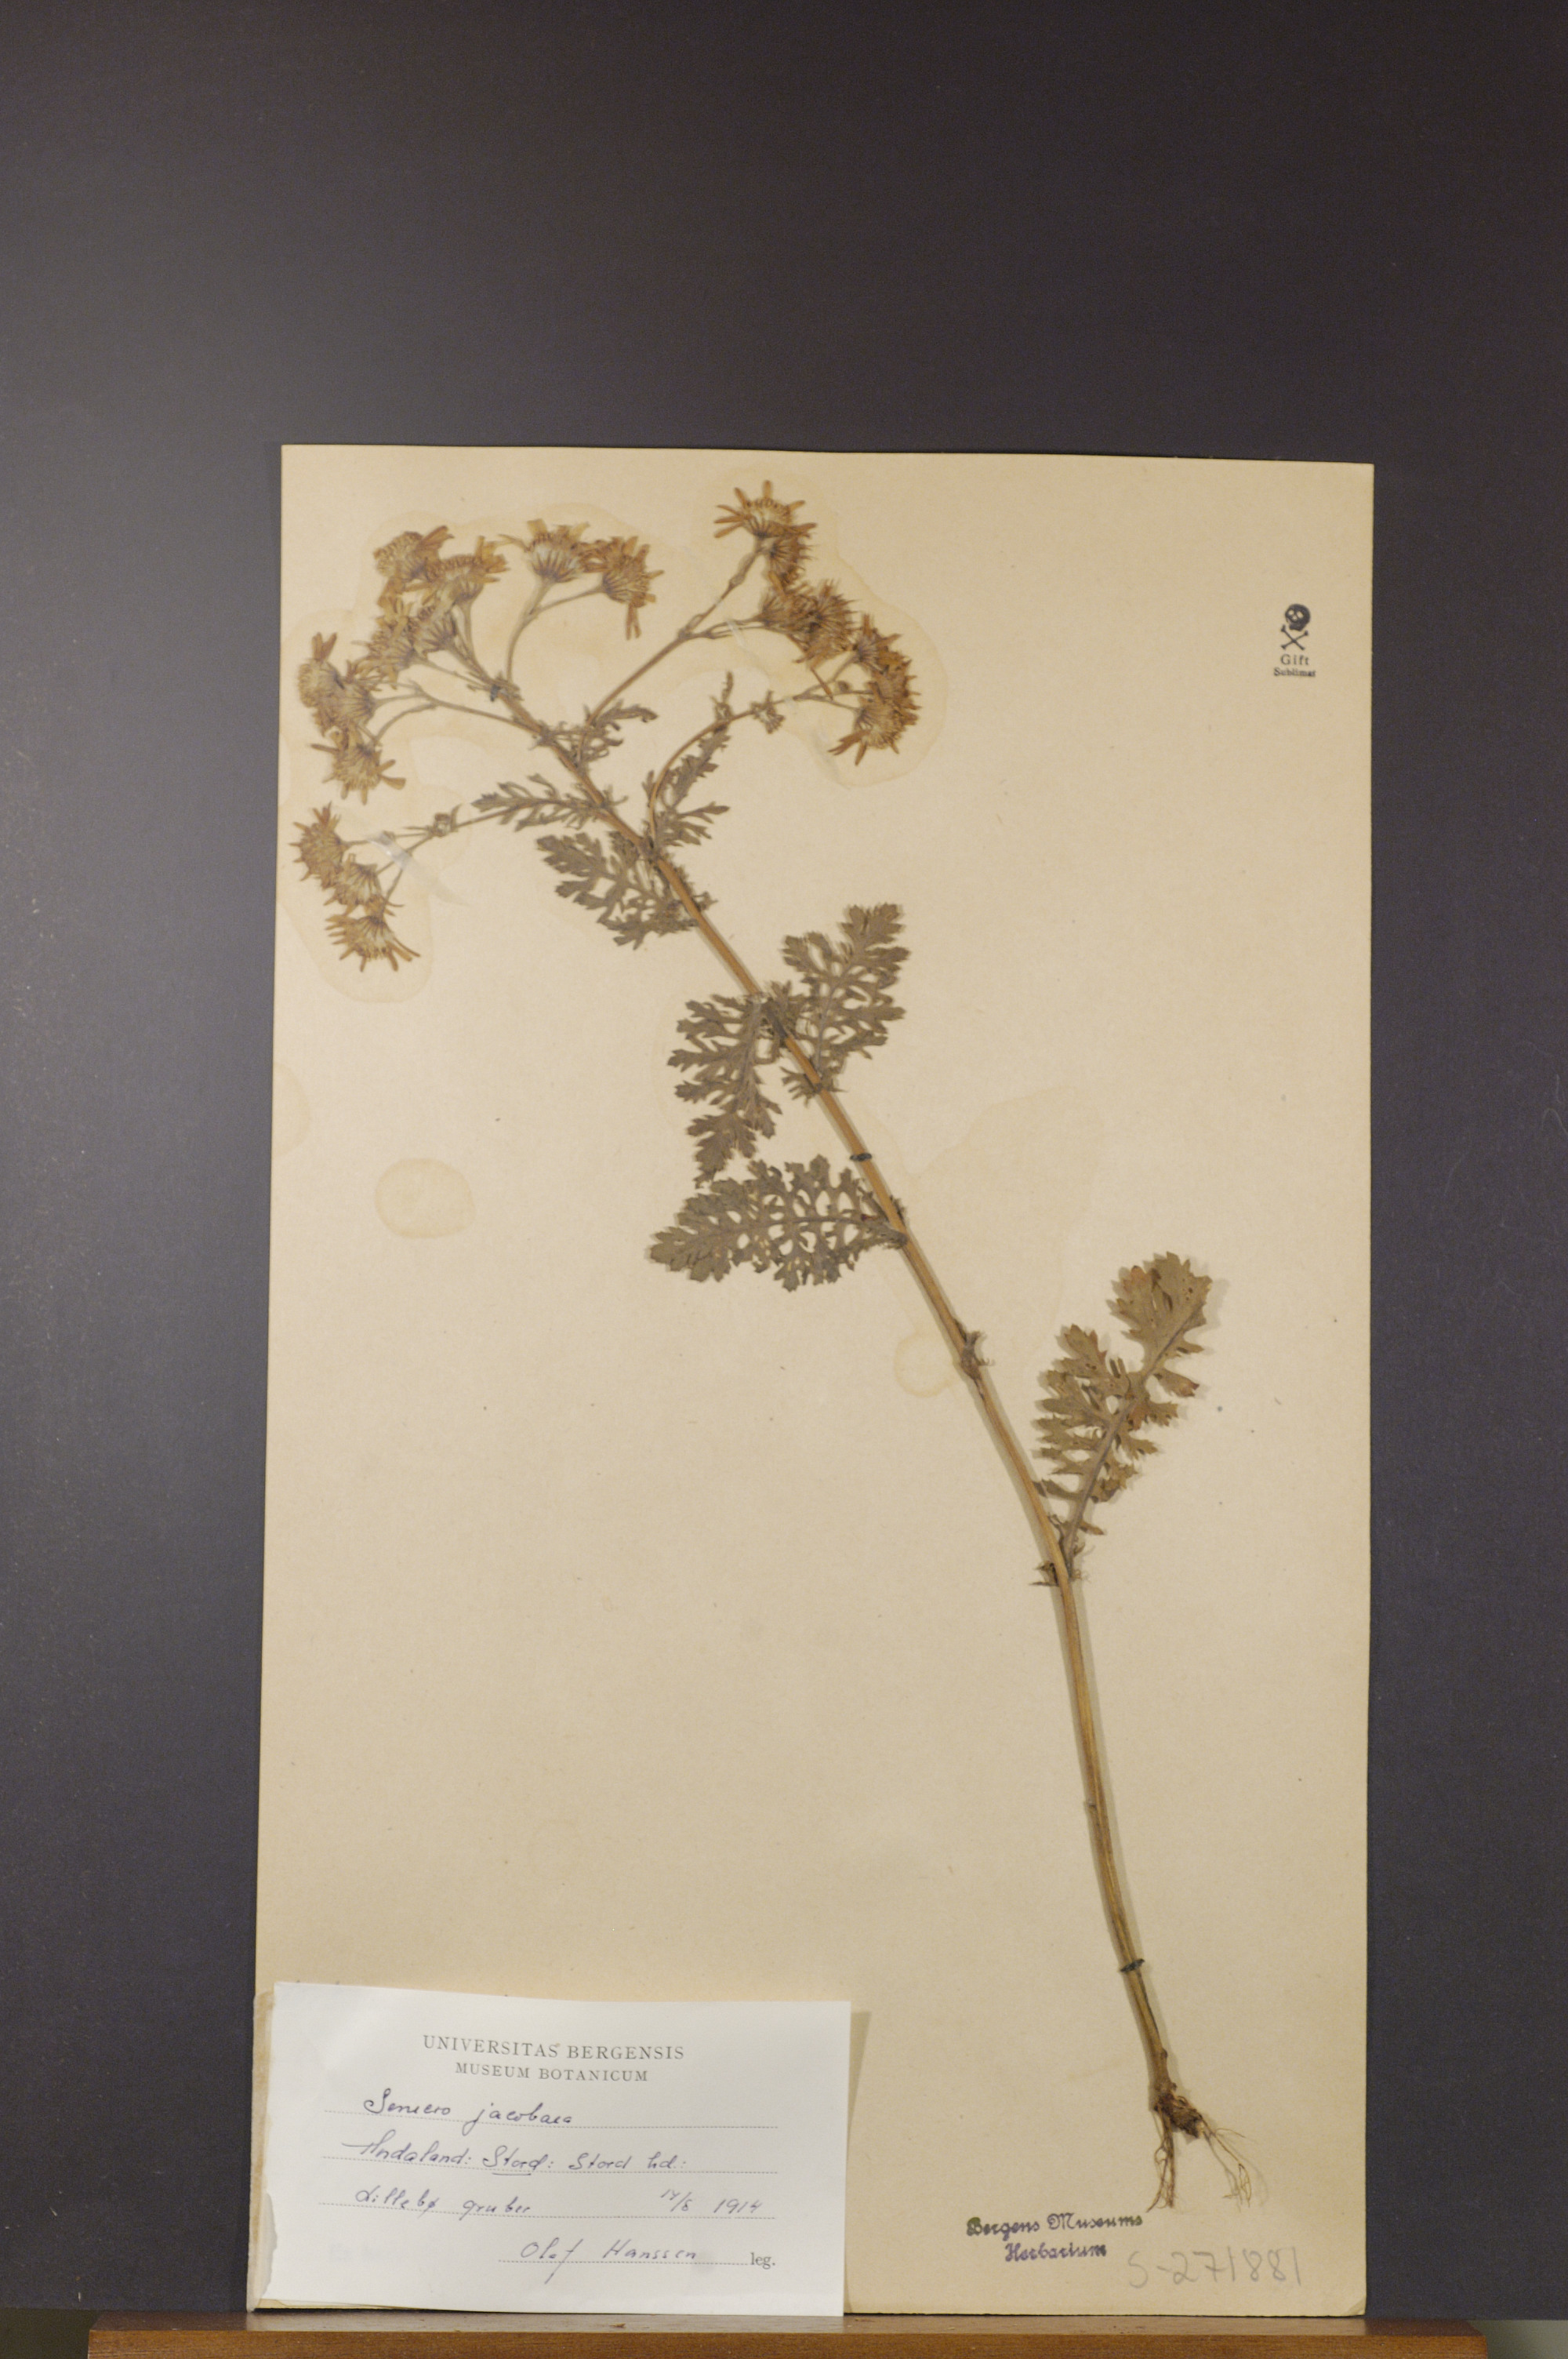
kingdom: Plantae
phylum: Tracheophyta
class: Magnoliopsida
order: Asterales
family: Asteraceae
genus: Jacobaea
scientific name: Jacobaea vulgaris
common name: Stinking willie
